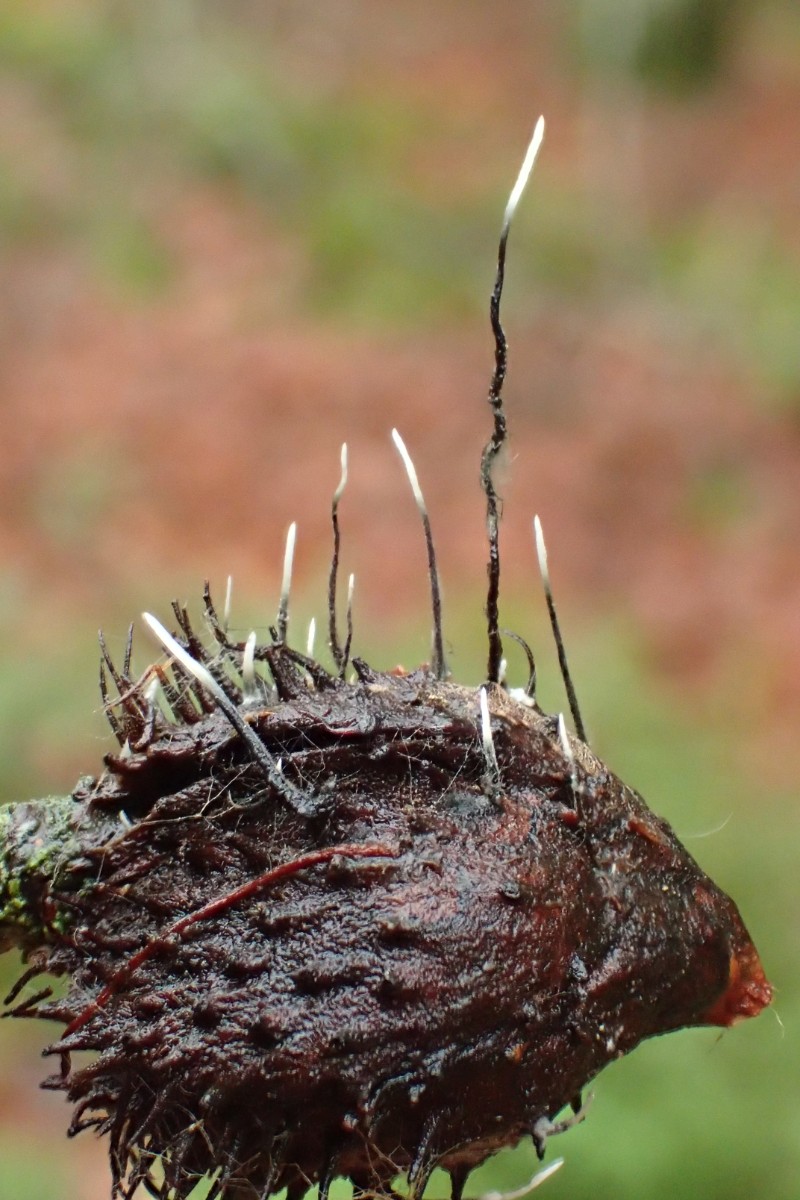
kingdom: Fungi
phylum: Ascomycota
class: Sordariomycetes
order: Xylariales
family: Xylariaceae
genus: Xylaria
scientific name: Xylaria carpophila
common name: bogskål-stødsvamp
